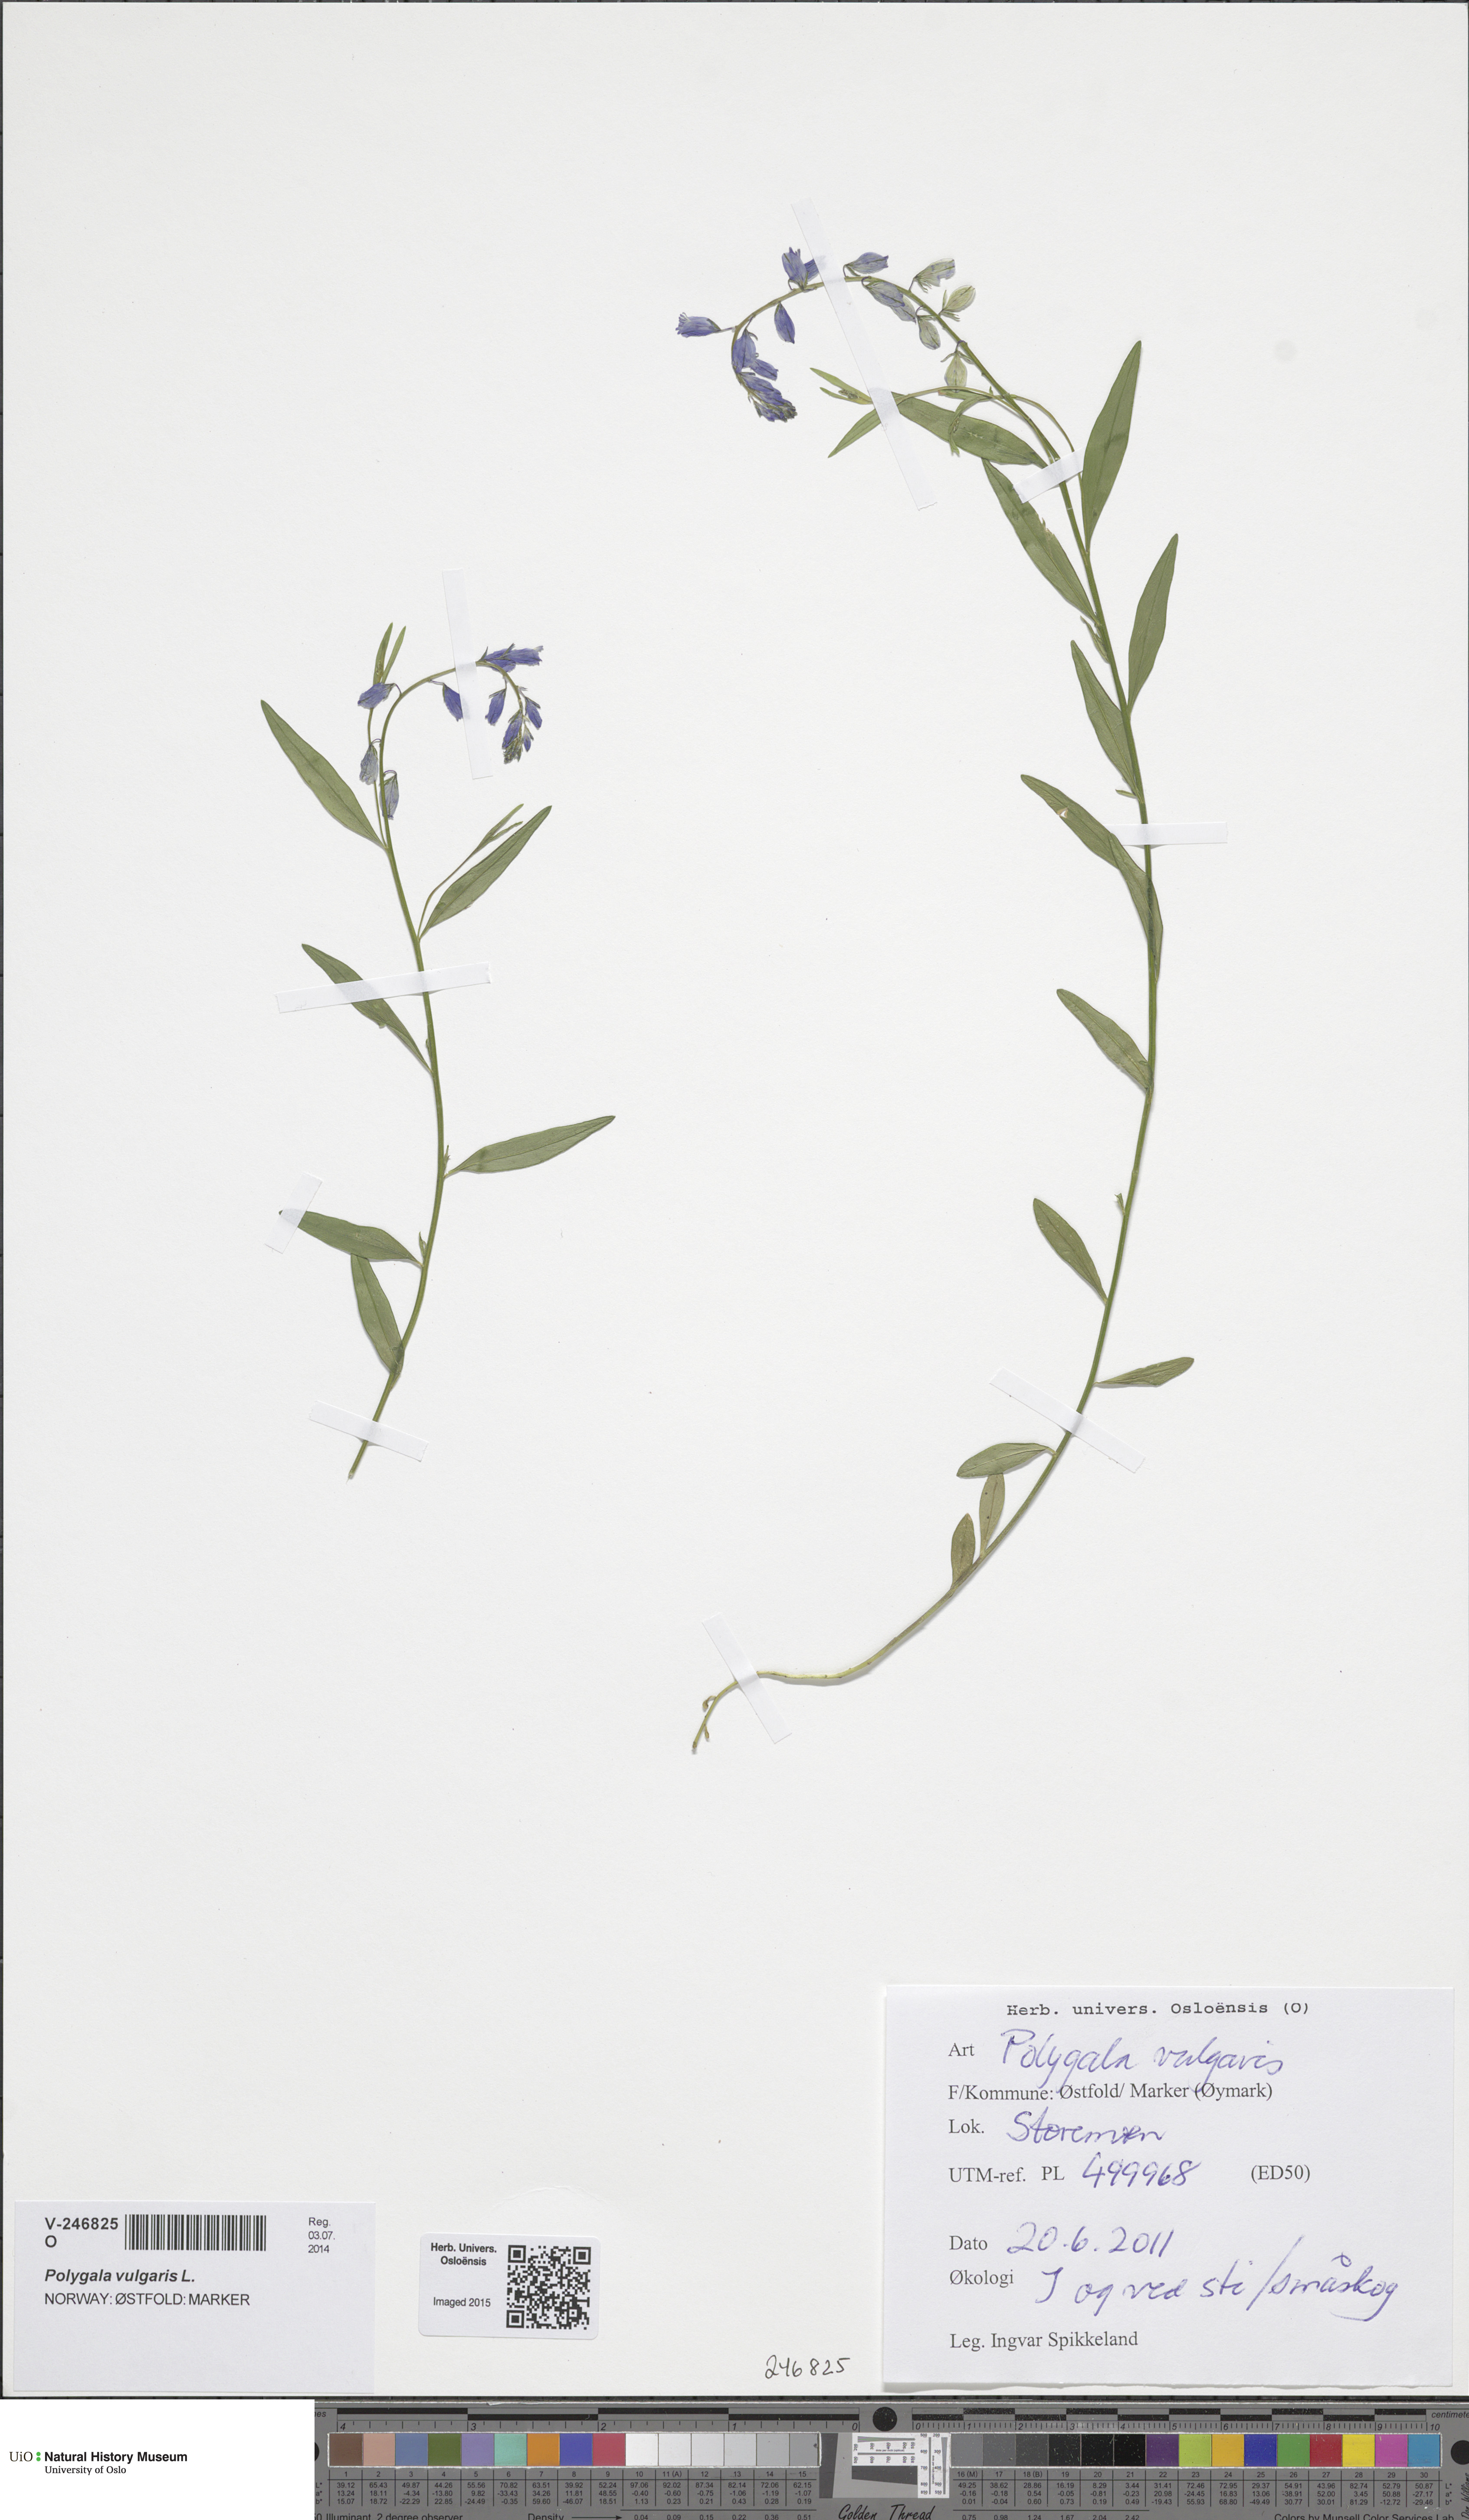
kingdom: Plantae
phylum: Tracheophyta
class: Magnoliopsida
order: Fabales
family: Polygalaceae
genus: Polygala
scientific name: Polygala vulgaris
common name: Common milkwort
